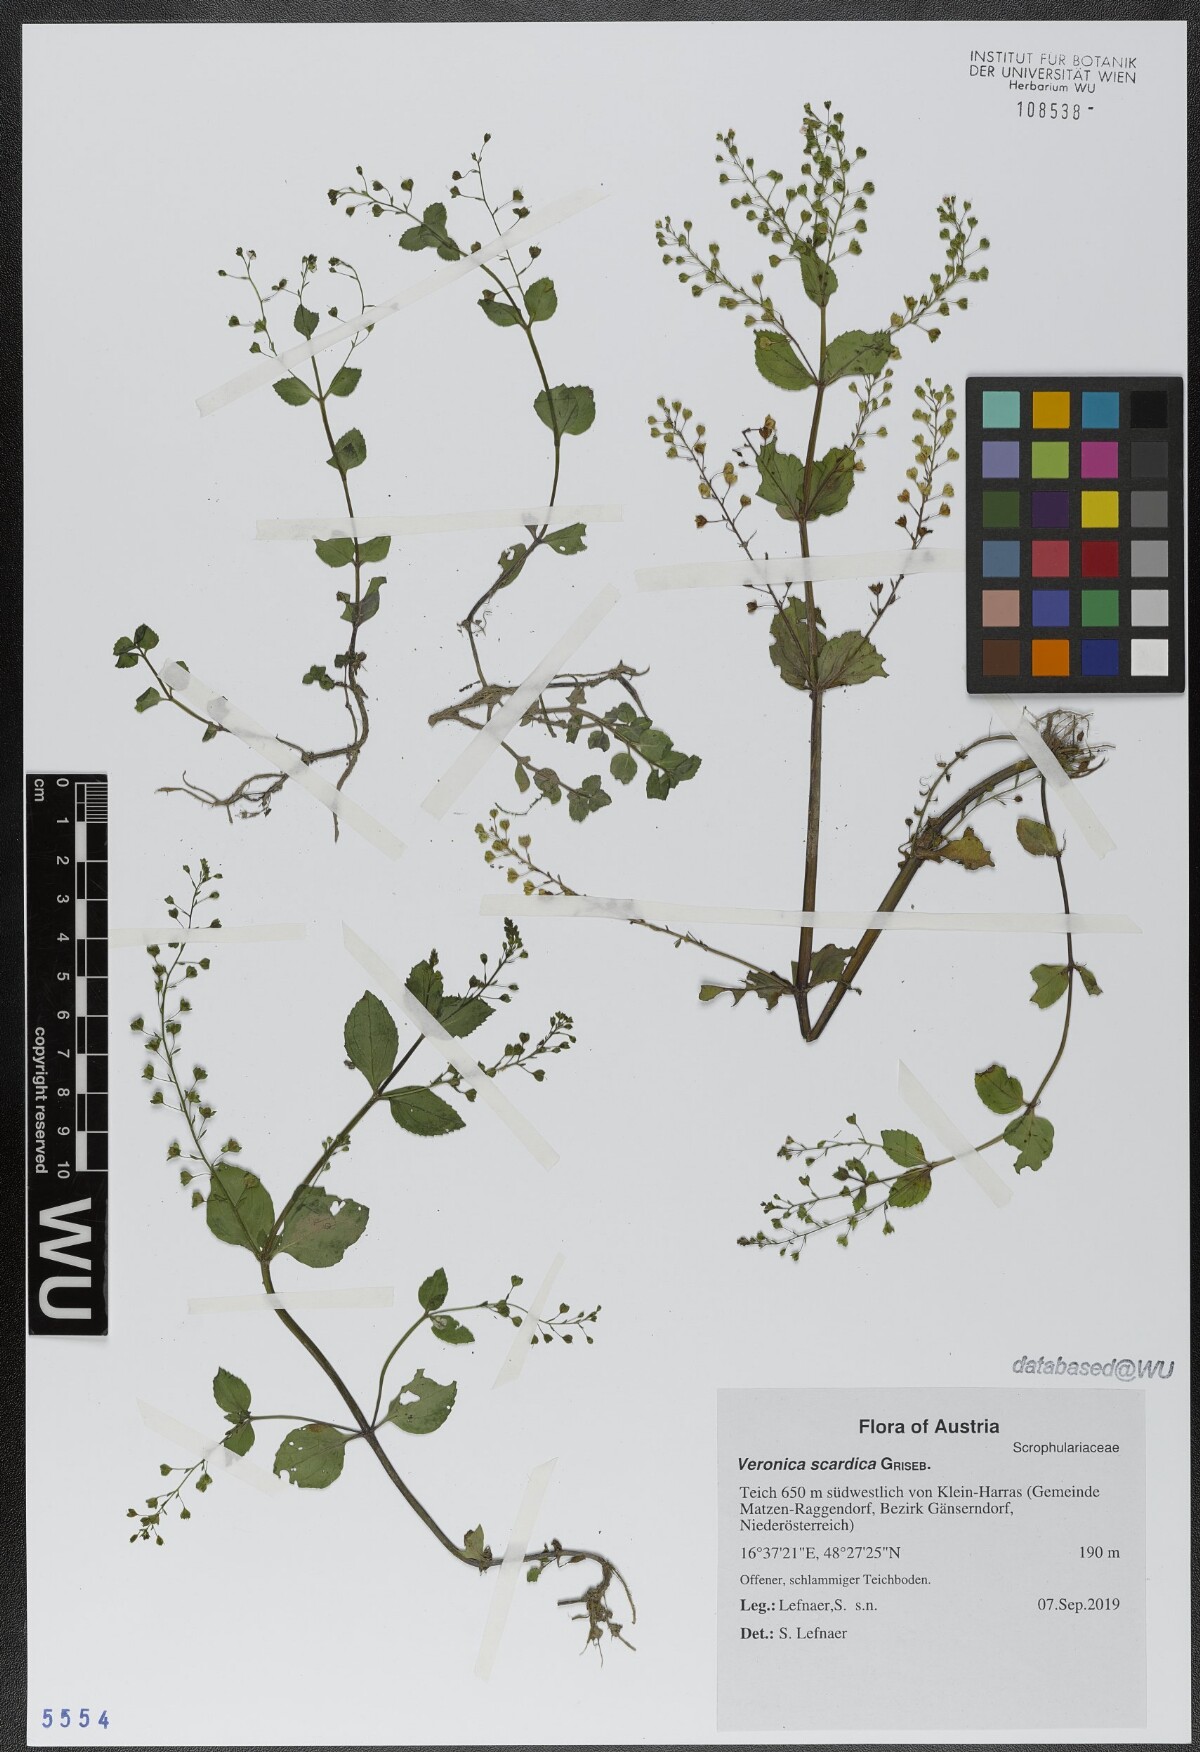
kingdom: Plantae
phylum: Tracheophyta
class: Magnoliopsida
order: Lamiales
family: Plantaginaceae
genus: Veronica
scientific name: Veronica scardica
